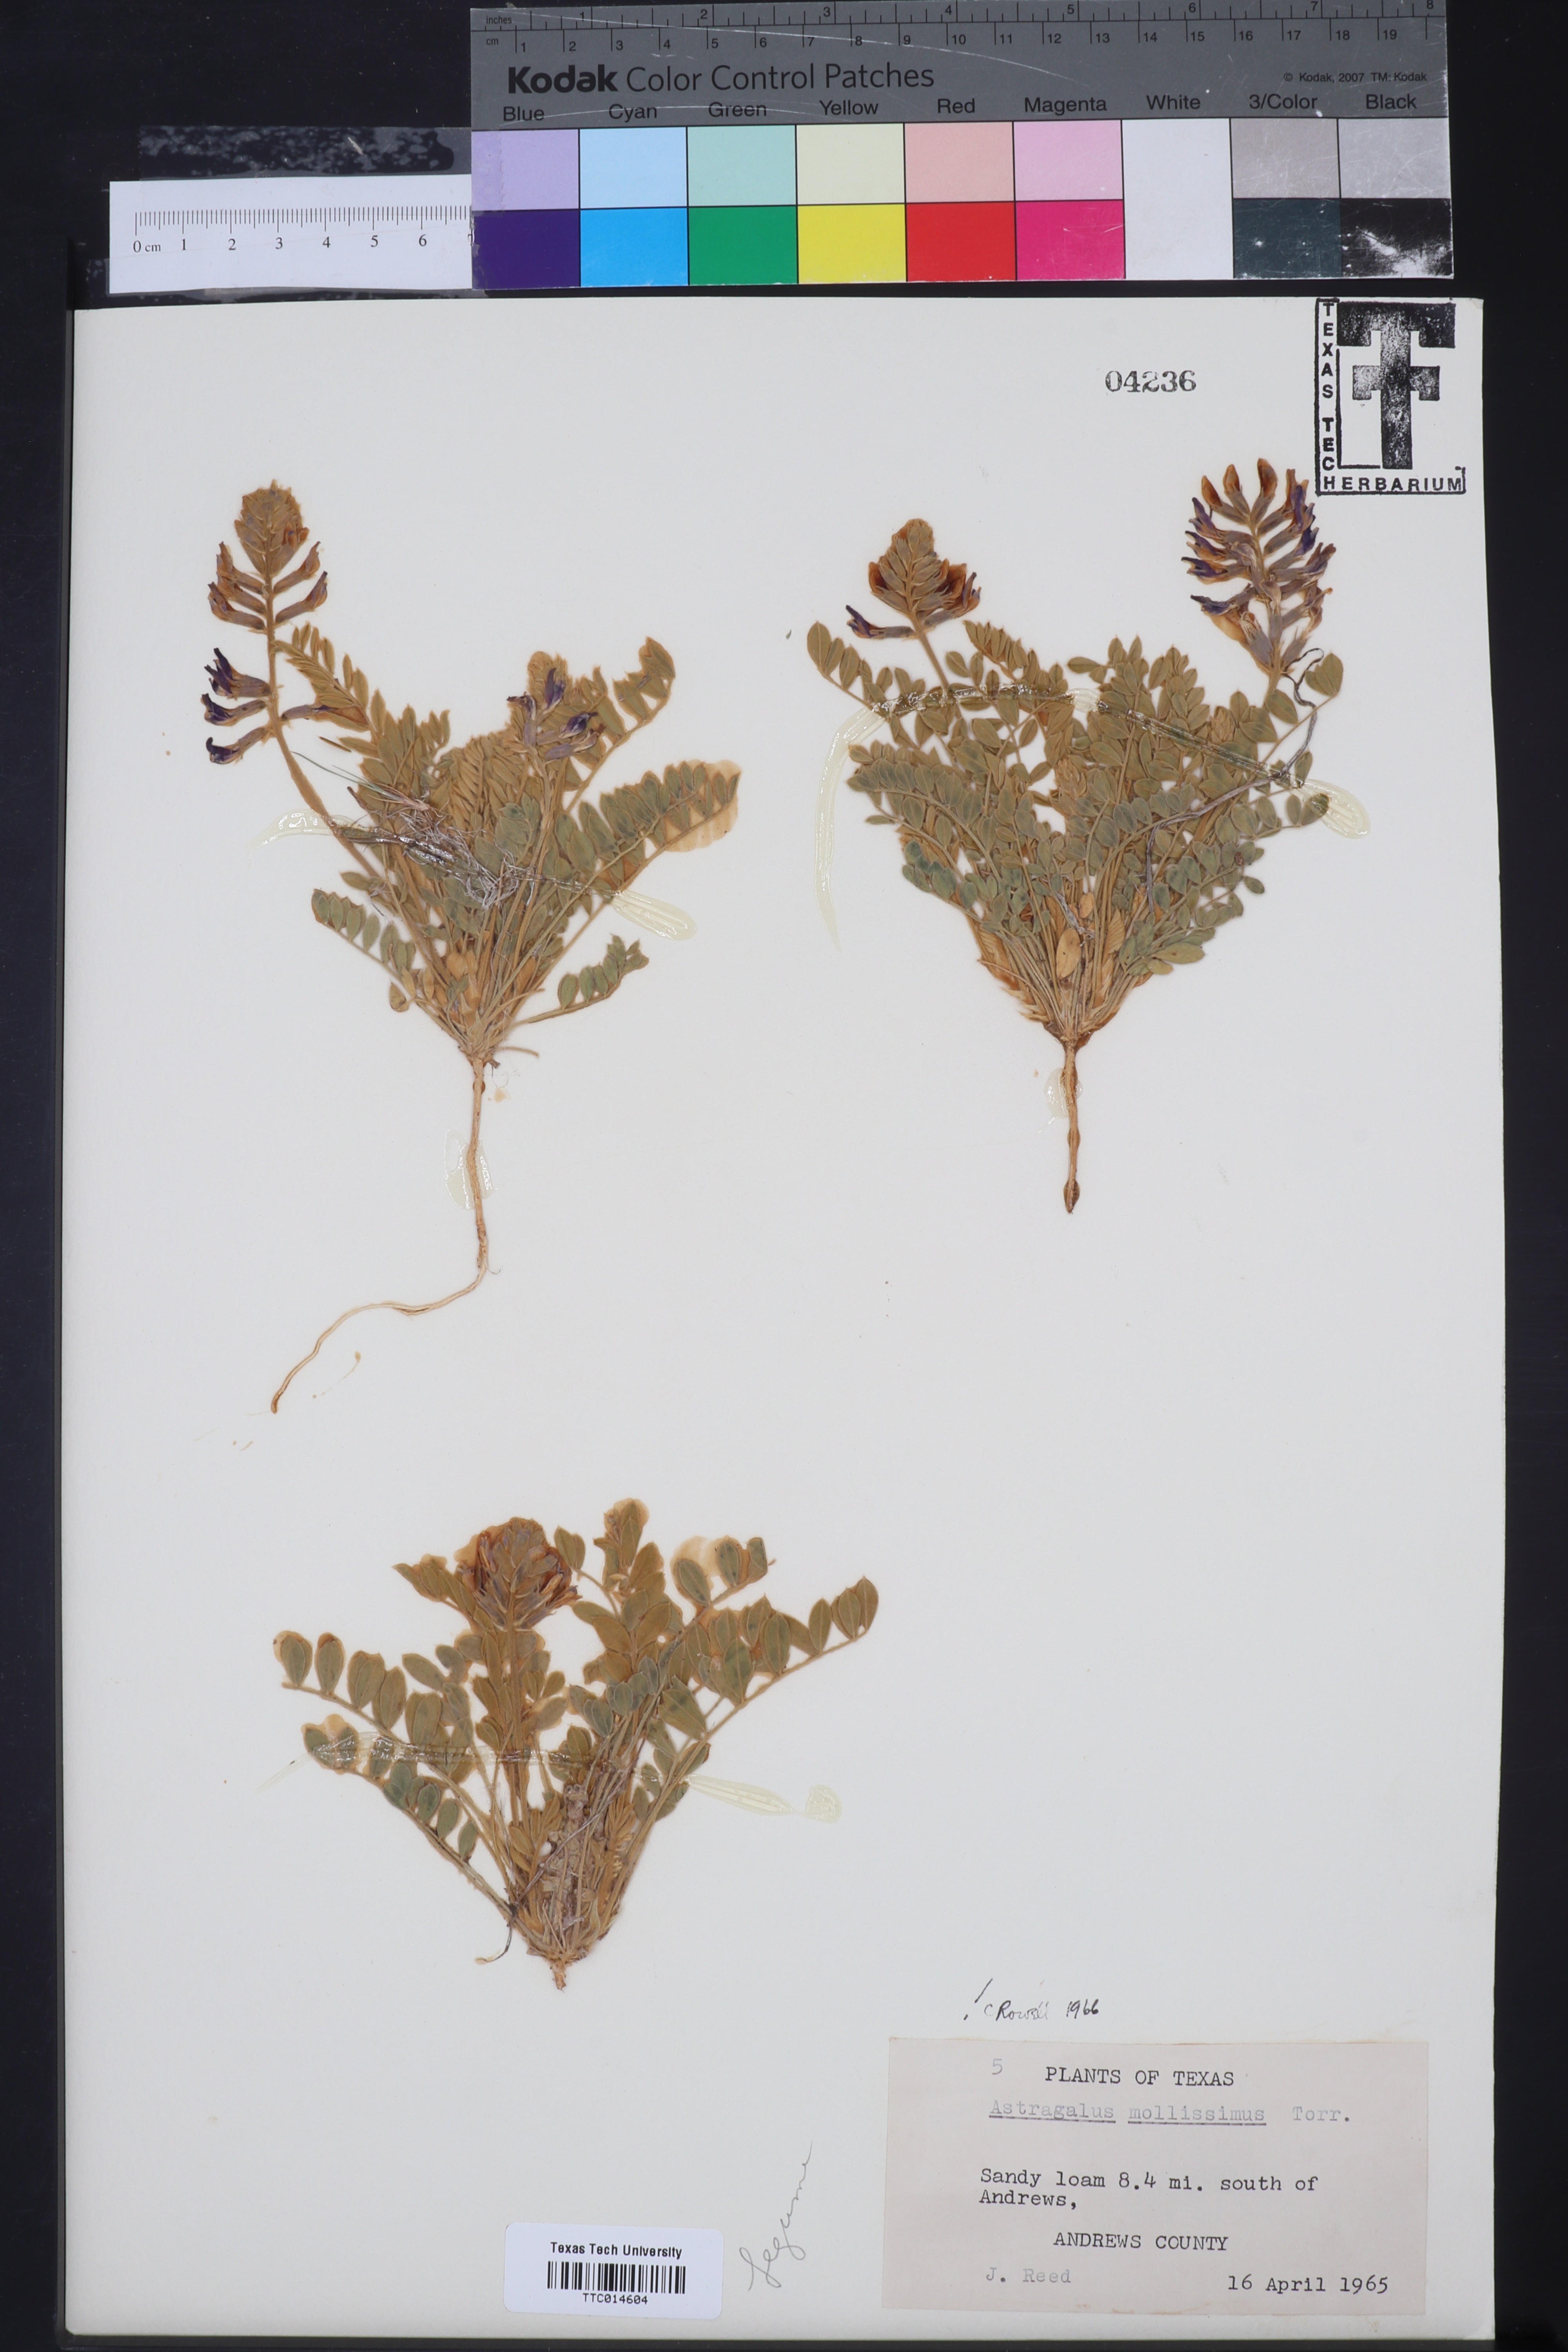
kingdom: Plantae
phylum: Tracheophyta
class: Magnoliopsida
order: Fabales
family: Fabaceae
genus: Astragalus
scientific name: Astragalus missouriensis
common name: Missouri milk-vetch
